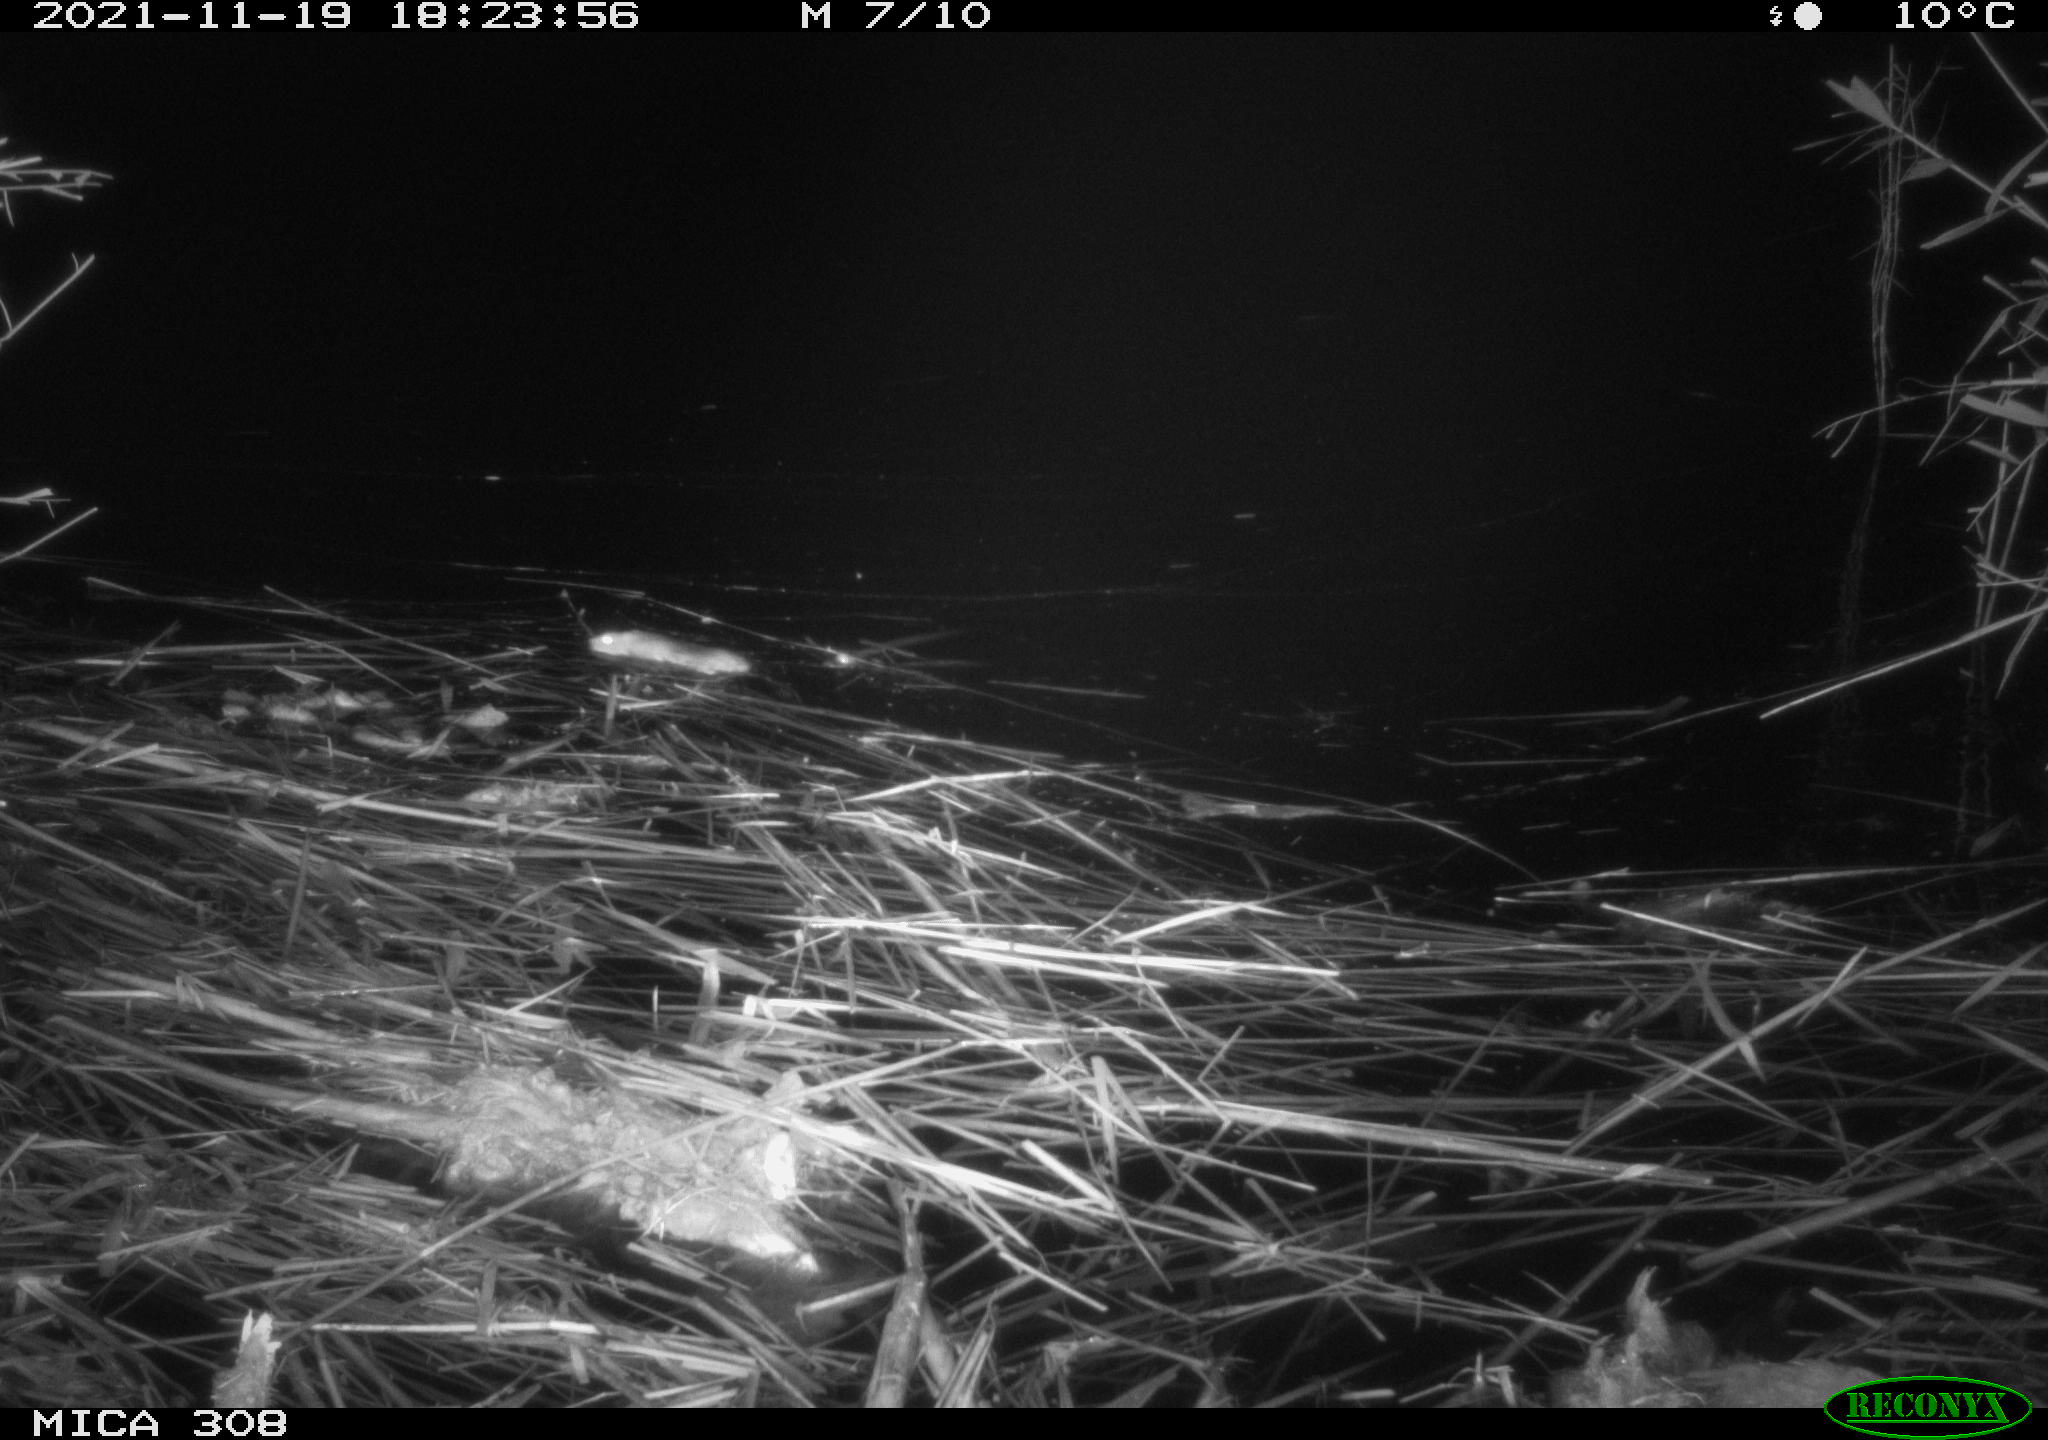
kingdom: Animalia
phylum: Chordata
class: Mammalia
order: Rodentia
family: Muridae
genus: Rattus
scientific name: Rattus norvegicus
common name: Brown rat
